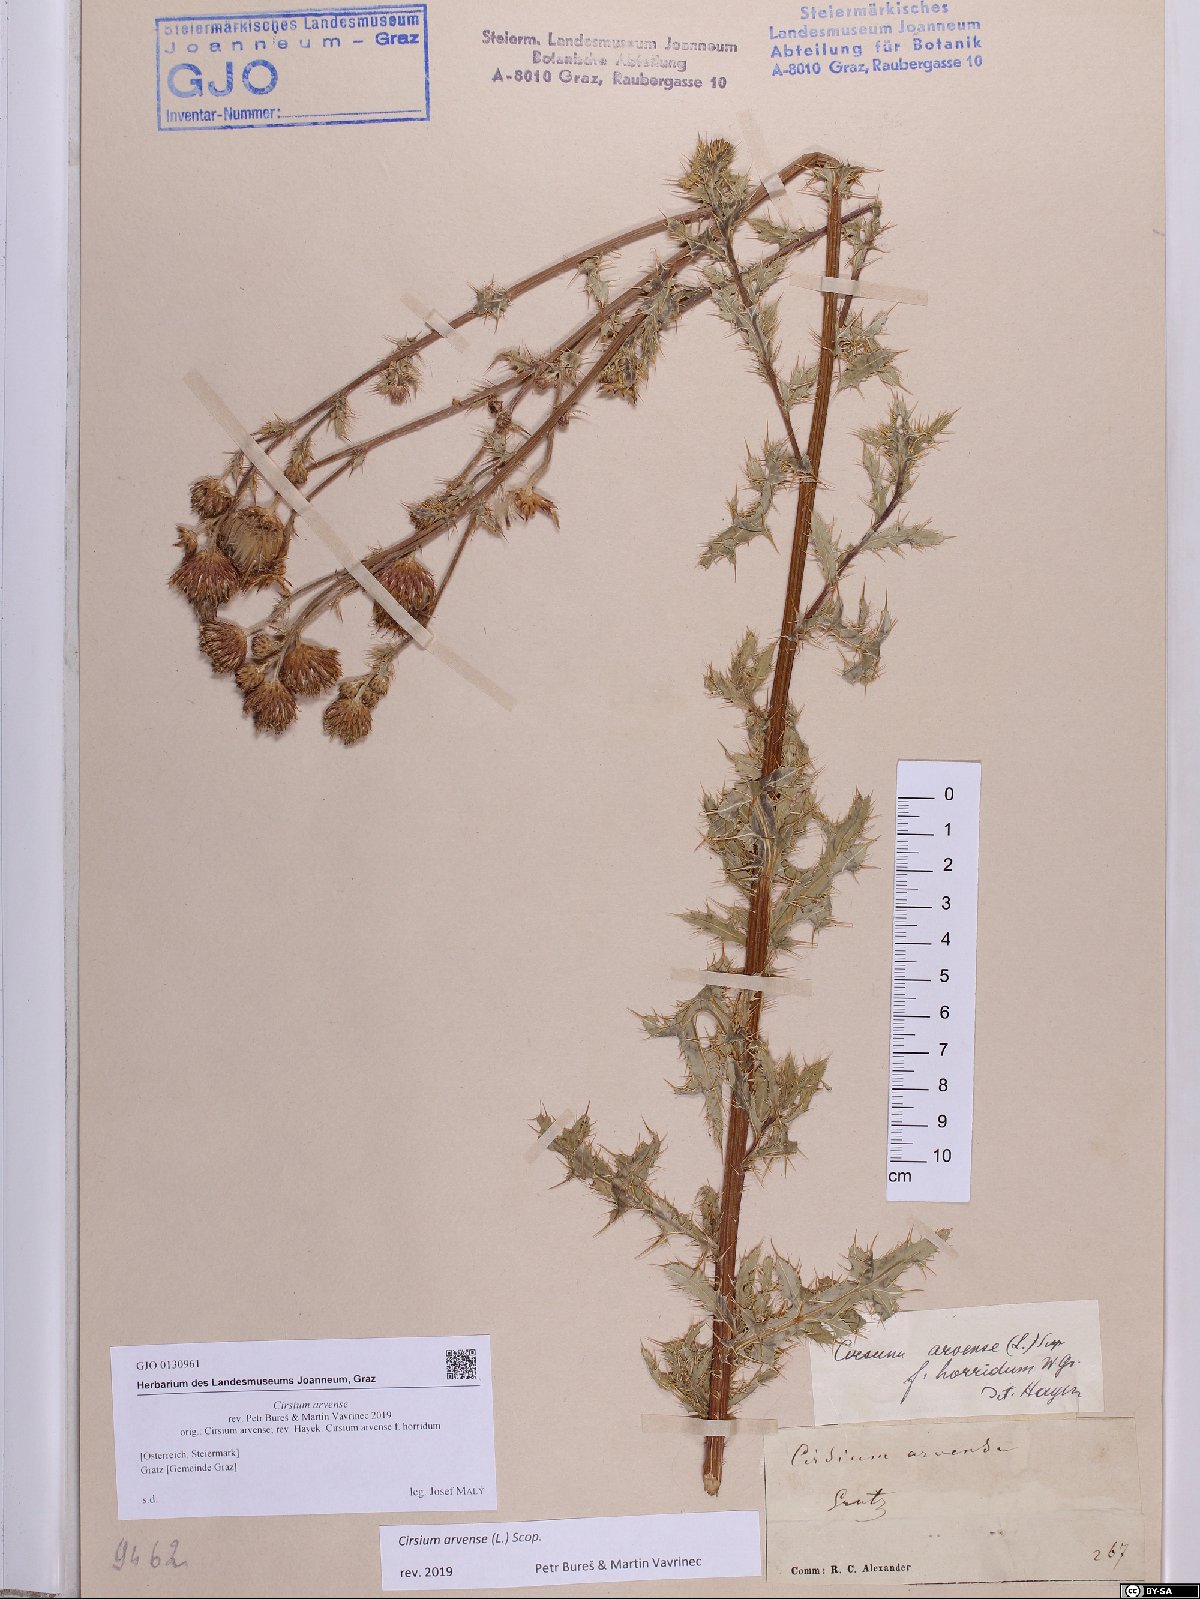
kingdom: Plantae
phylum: Tracheophyta
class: Magnoliopsida
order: Asterales
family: Asteraceae
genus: Cirsium
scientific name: Cirsium arvense
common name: Creeping thistle
